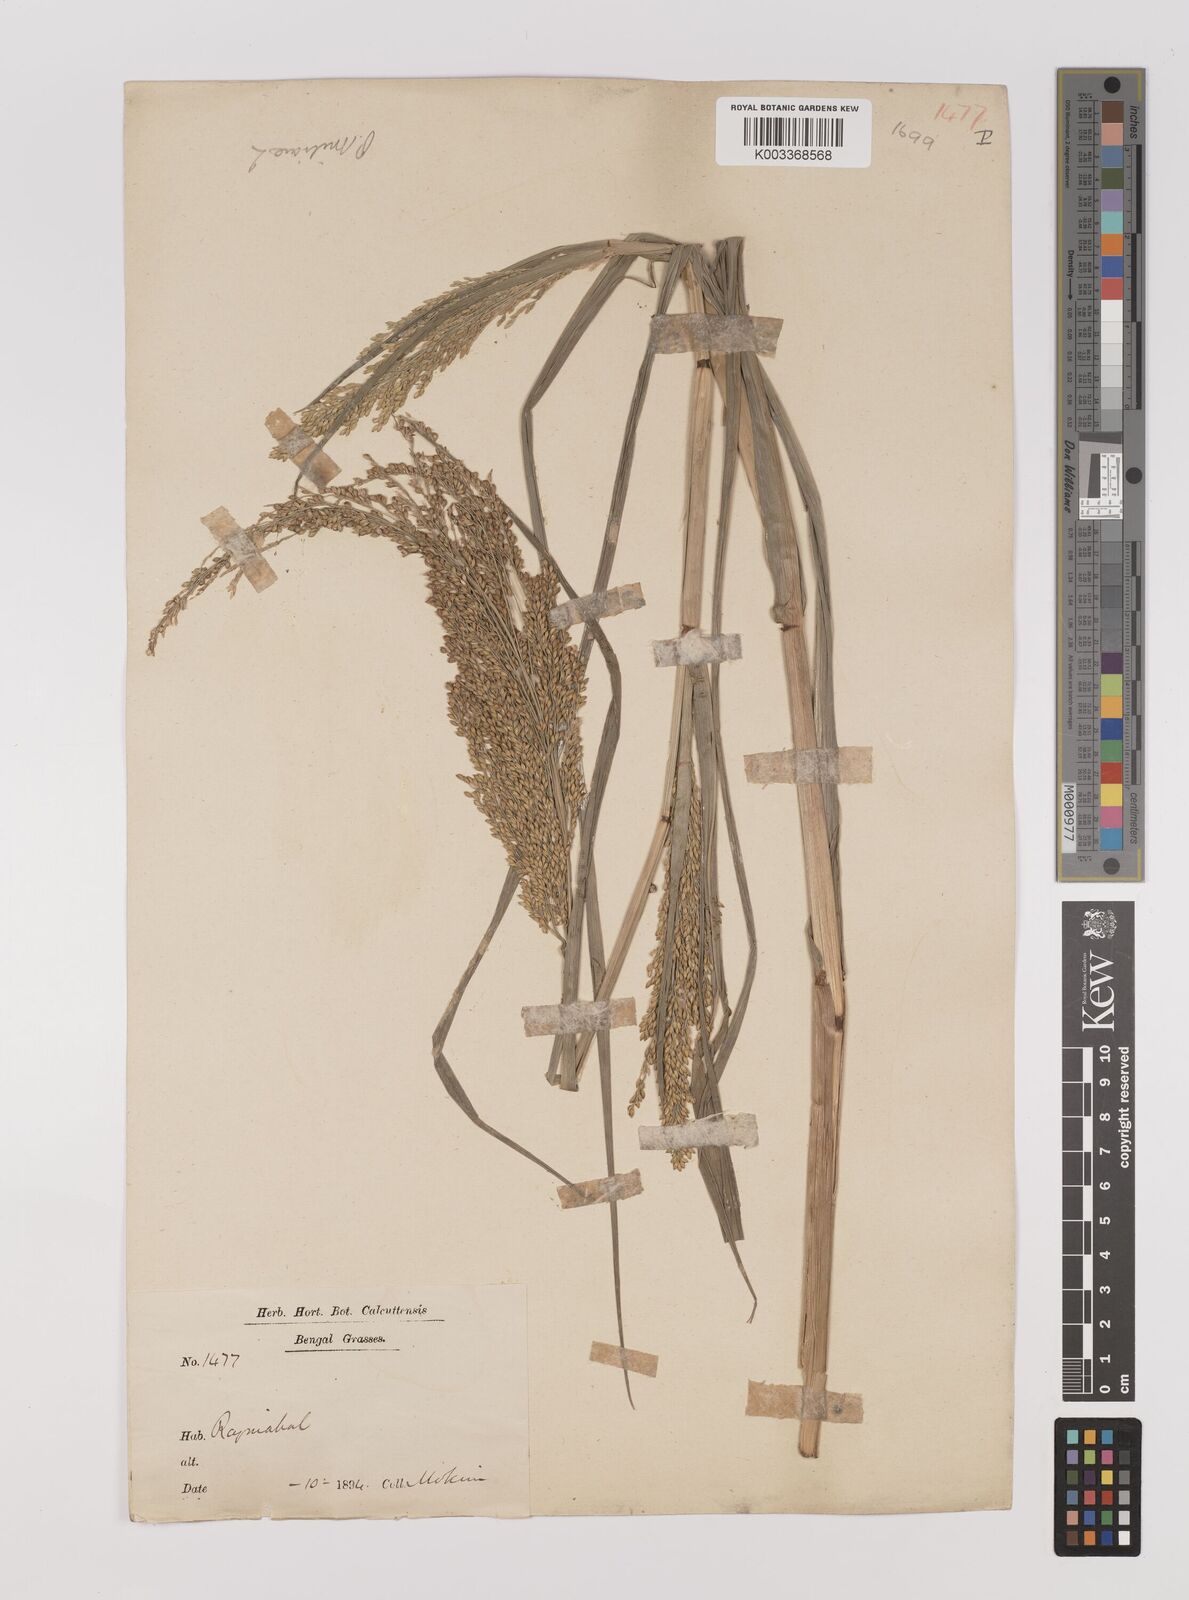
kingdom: Plantae
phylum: Tracheophyta
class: Liliopsida
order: Poales
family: Poaceae
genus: Panicum
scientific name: Panicum sumatrense
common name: Little millet
